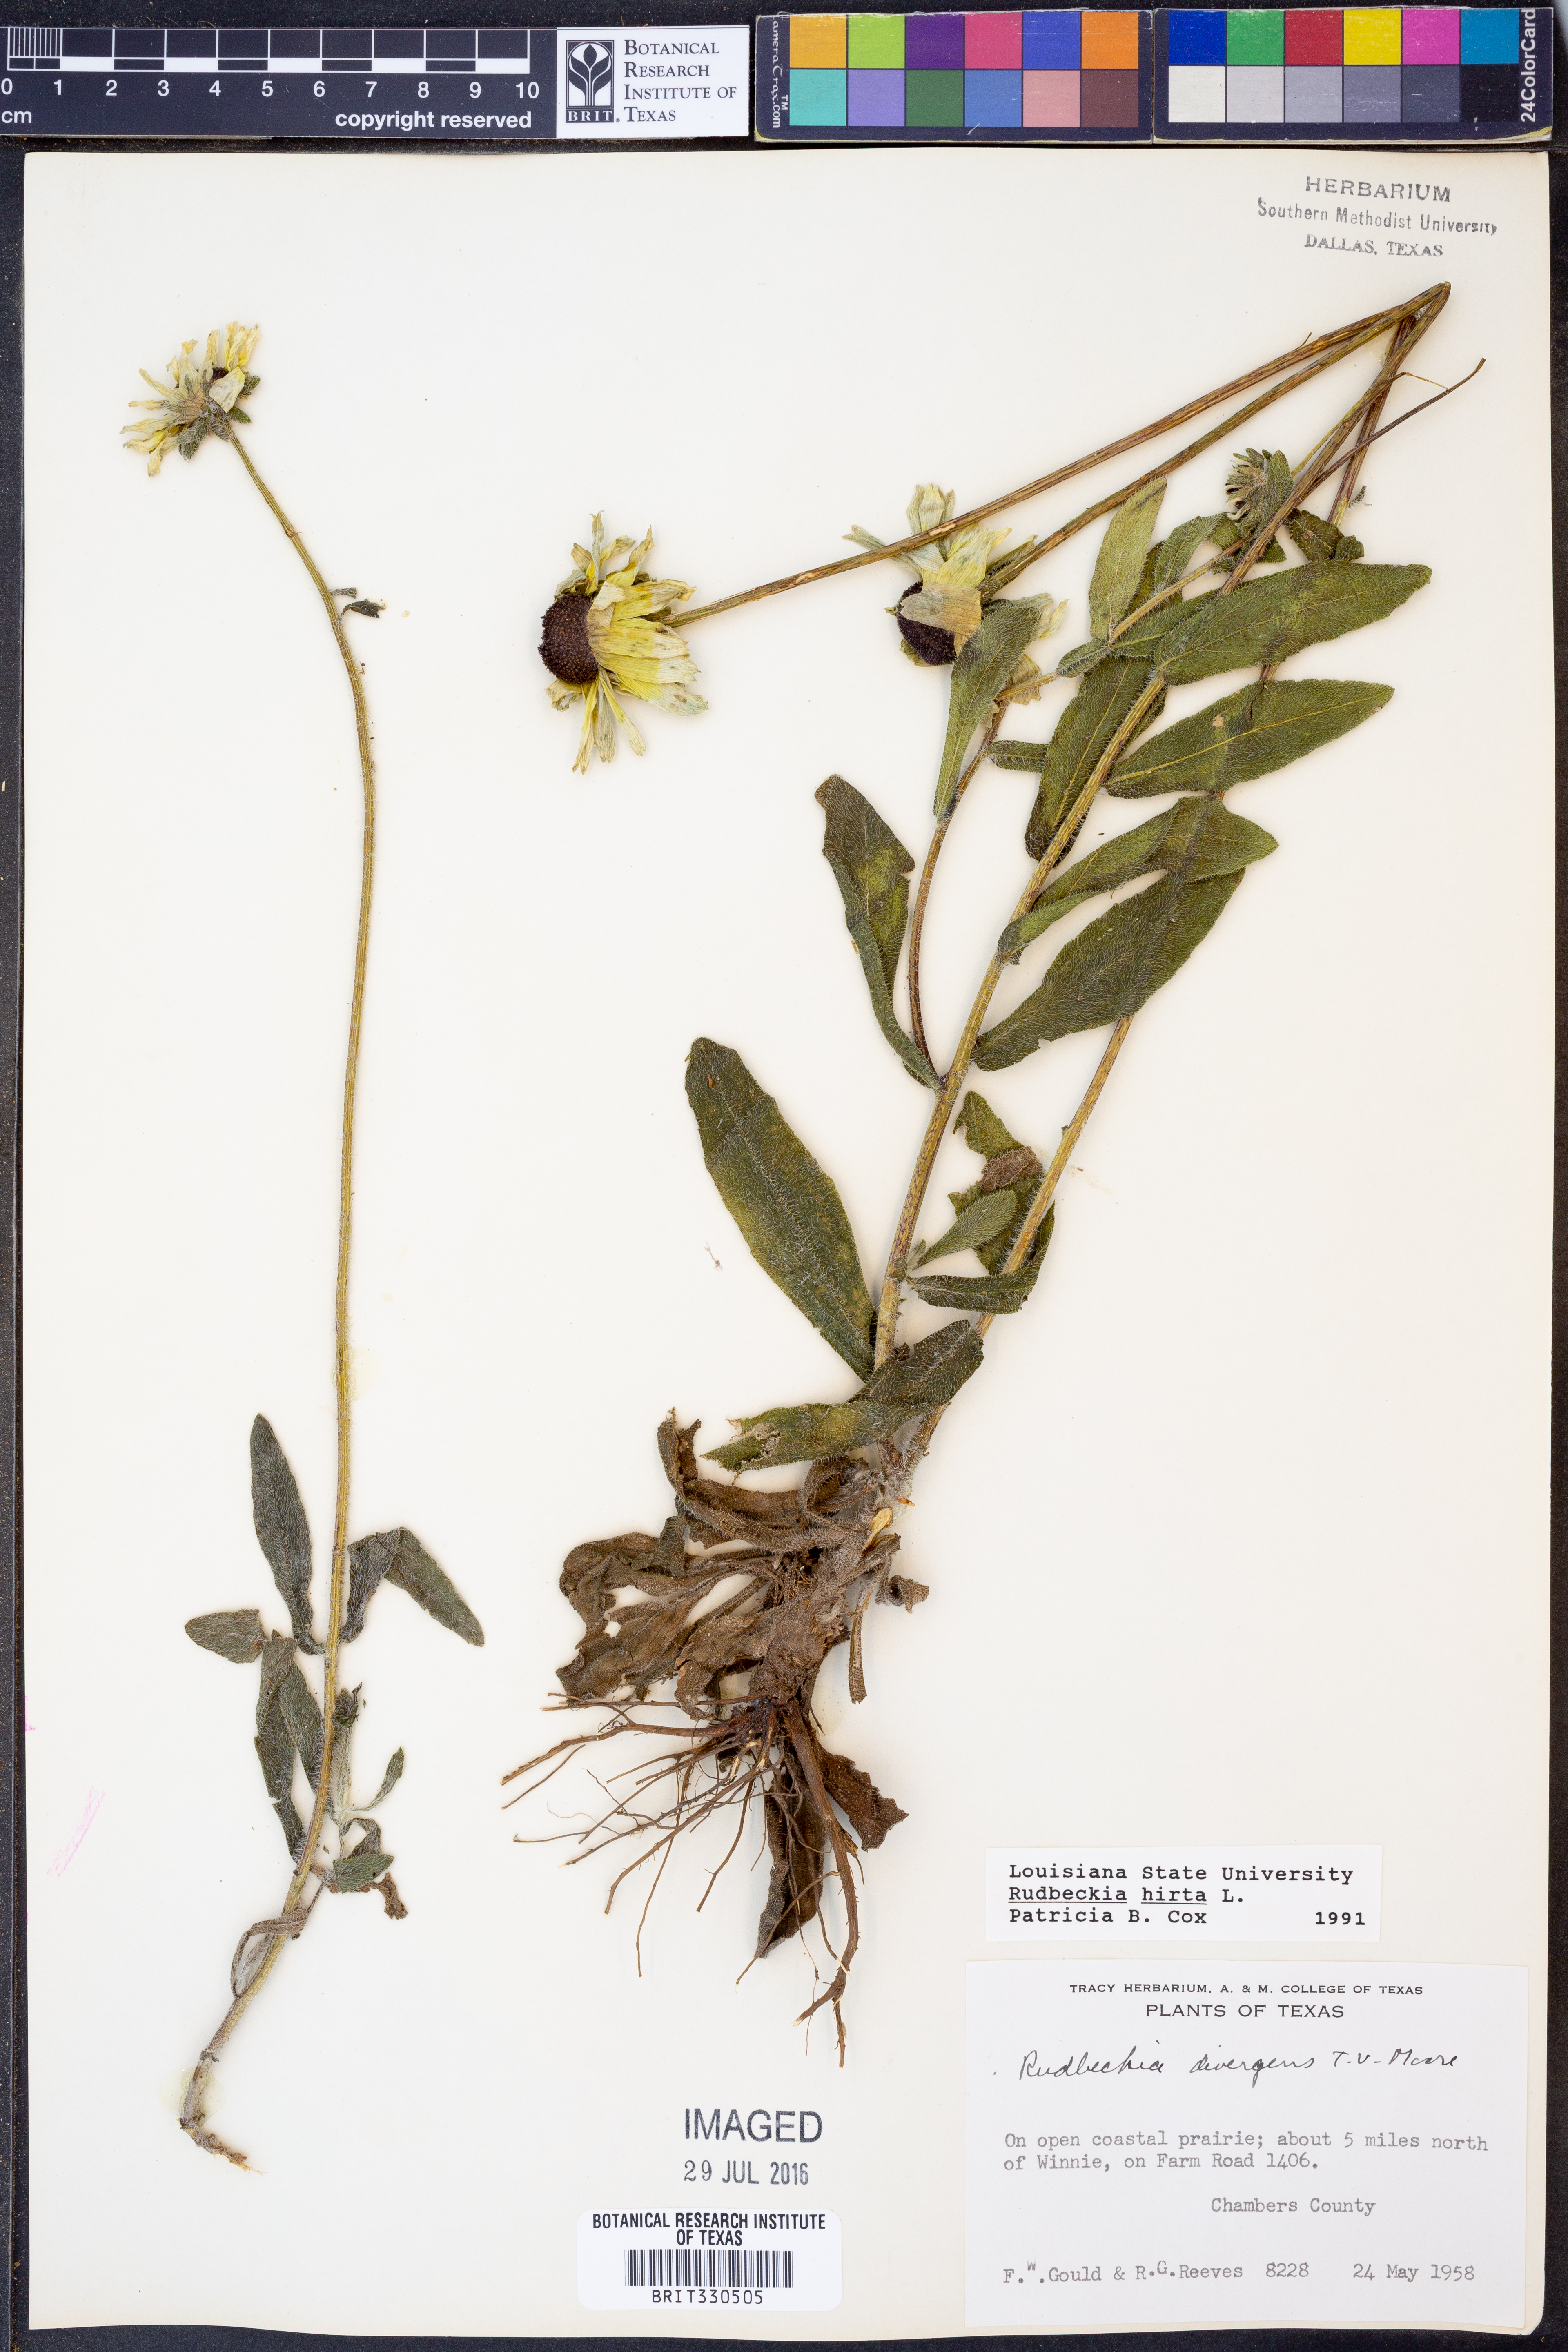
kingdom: Plantae
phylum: Tracheophyta
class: Magnoliopsida
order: Asterales
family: Asteraceae
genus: Rudbeckia
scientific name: Rudbeckia hirta
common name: Black-eyed-susan
